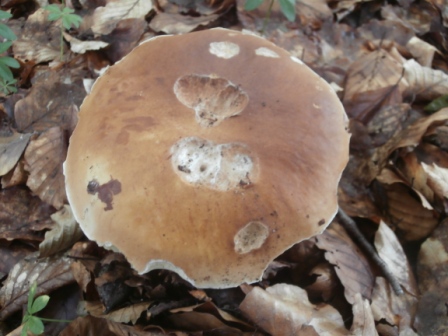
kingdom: Fungi
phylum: Basidiomycota
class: Agaricomycetes
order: Boletales
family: Boletaceae
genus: Boletus
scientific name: Boletus edulis
